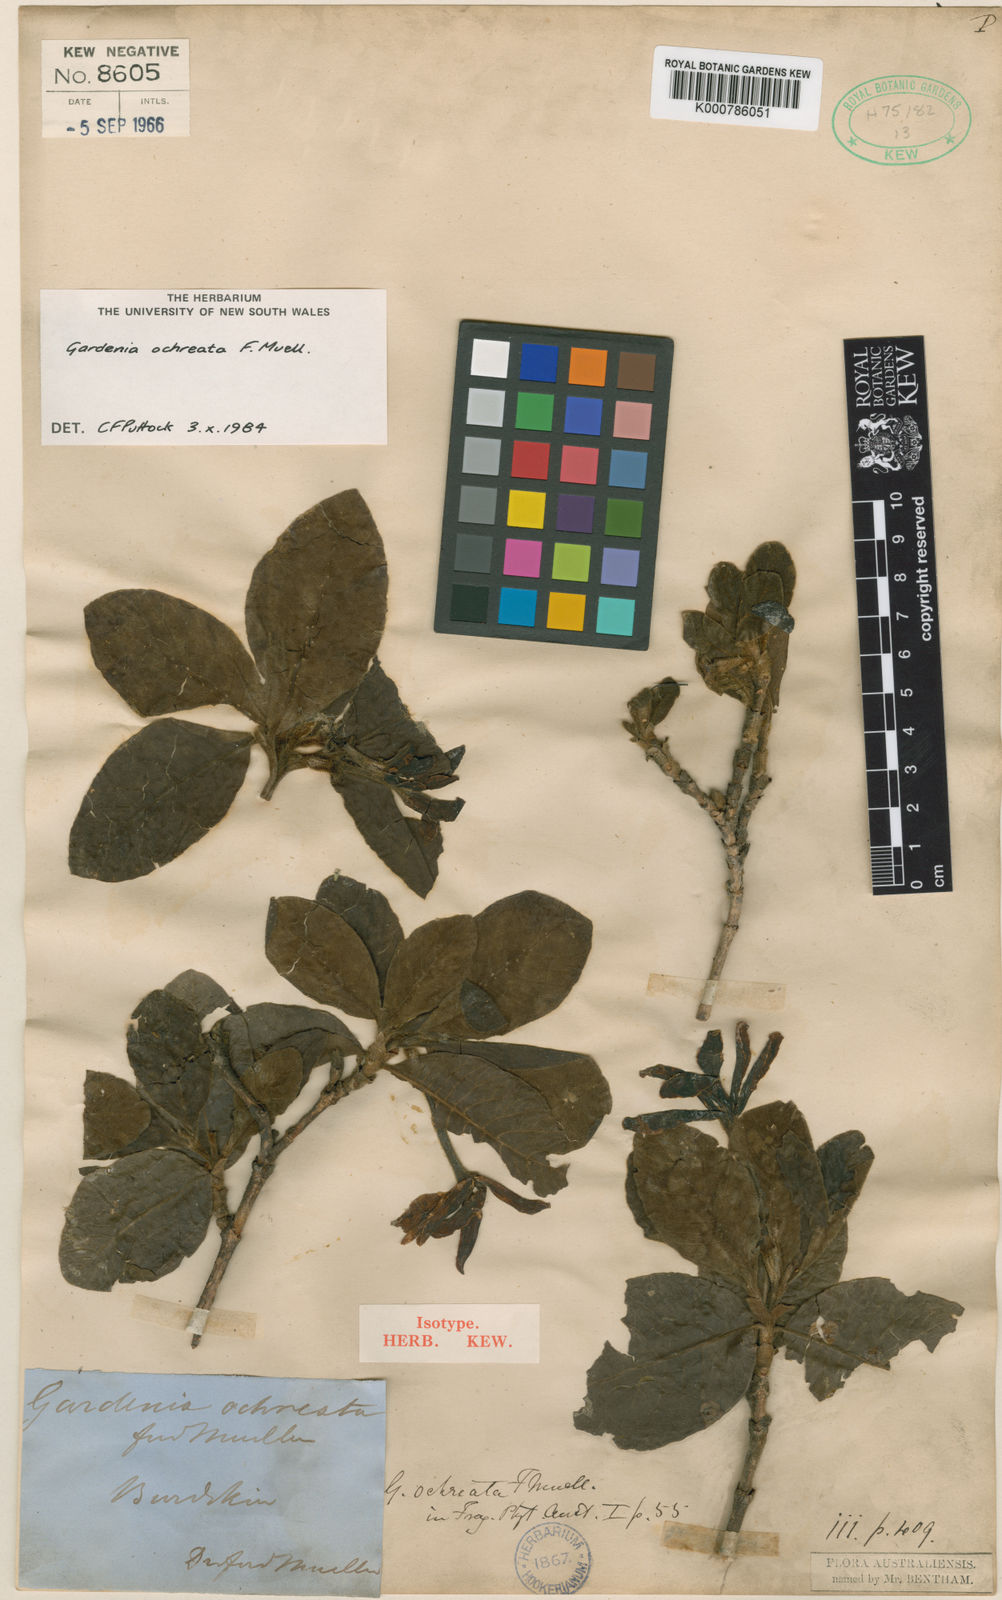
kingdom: Plantae
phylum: Tracheophyta
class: Magnoliopsida
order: Gentianales
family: Rubiaceae
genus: Larsenaikia
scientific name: Larsenaikia ochreata
